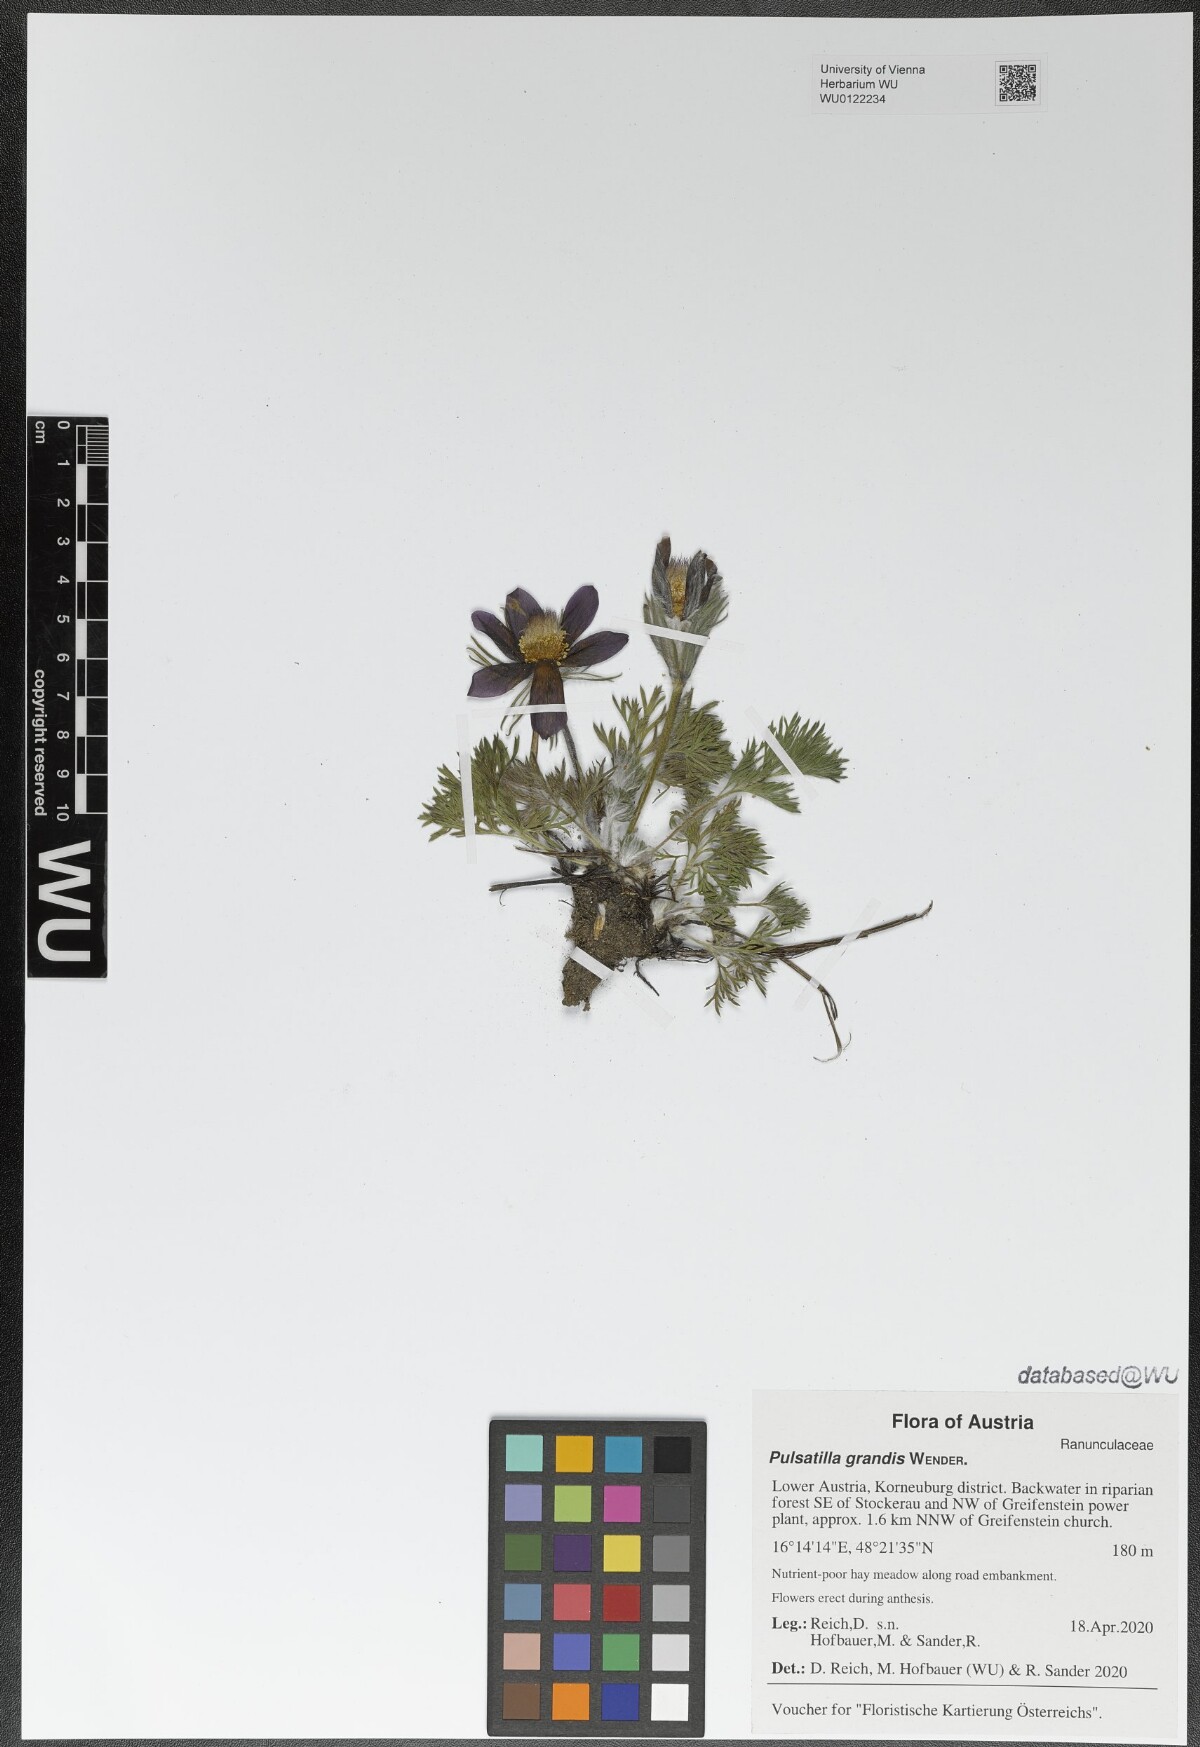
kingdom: Plantae
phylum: Tracheophyta
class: Magnoliopsida
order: Ranunculales
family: Ranunculaceae
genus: Pulsatilla
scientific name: Pulsatilla grandis
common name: Greater pasque flower
